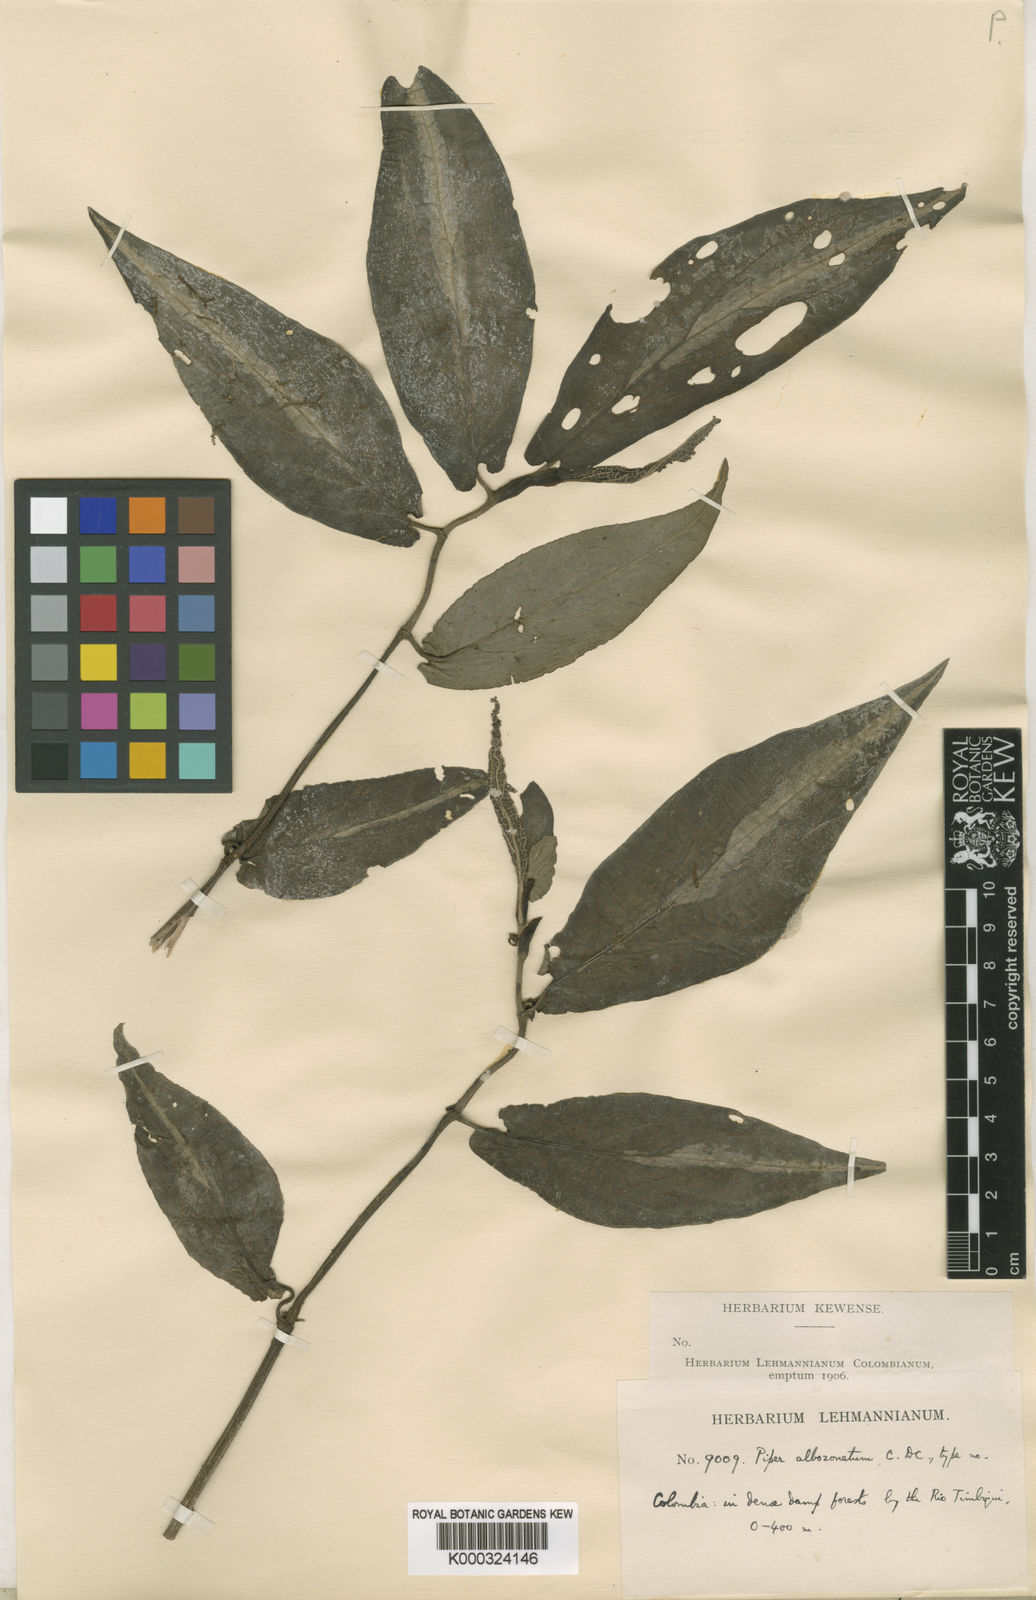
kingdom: Plantae
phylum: Tracheophyta
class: Magnoliopsida
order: Piperales
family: Piperaceae
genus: Piper
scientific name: Piper albozonatum
